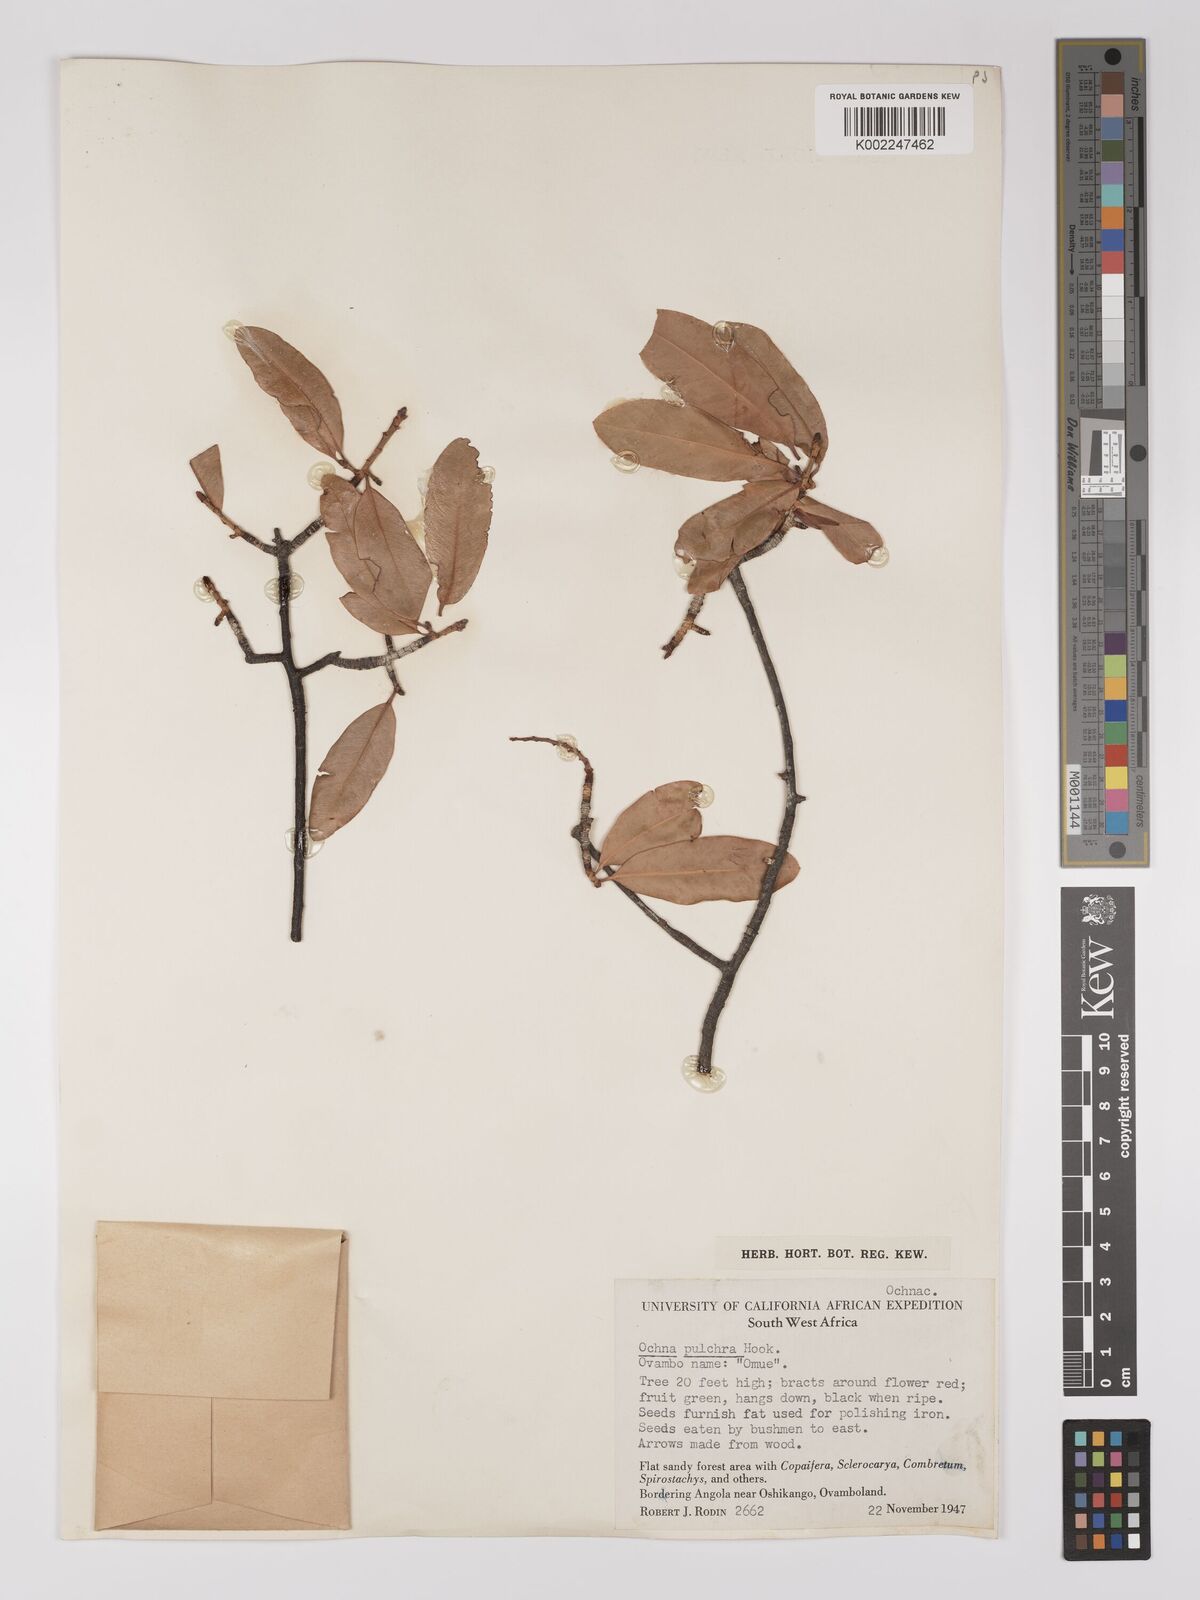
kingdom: Plantae
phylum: Tracheophyta
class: Magnoliopsida
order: Malpighiales
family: Ochnaceae
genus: Ochna
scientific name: Ochna pulchra
